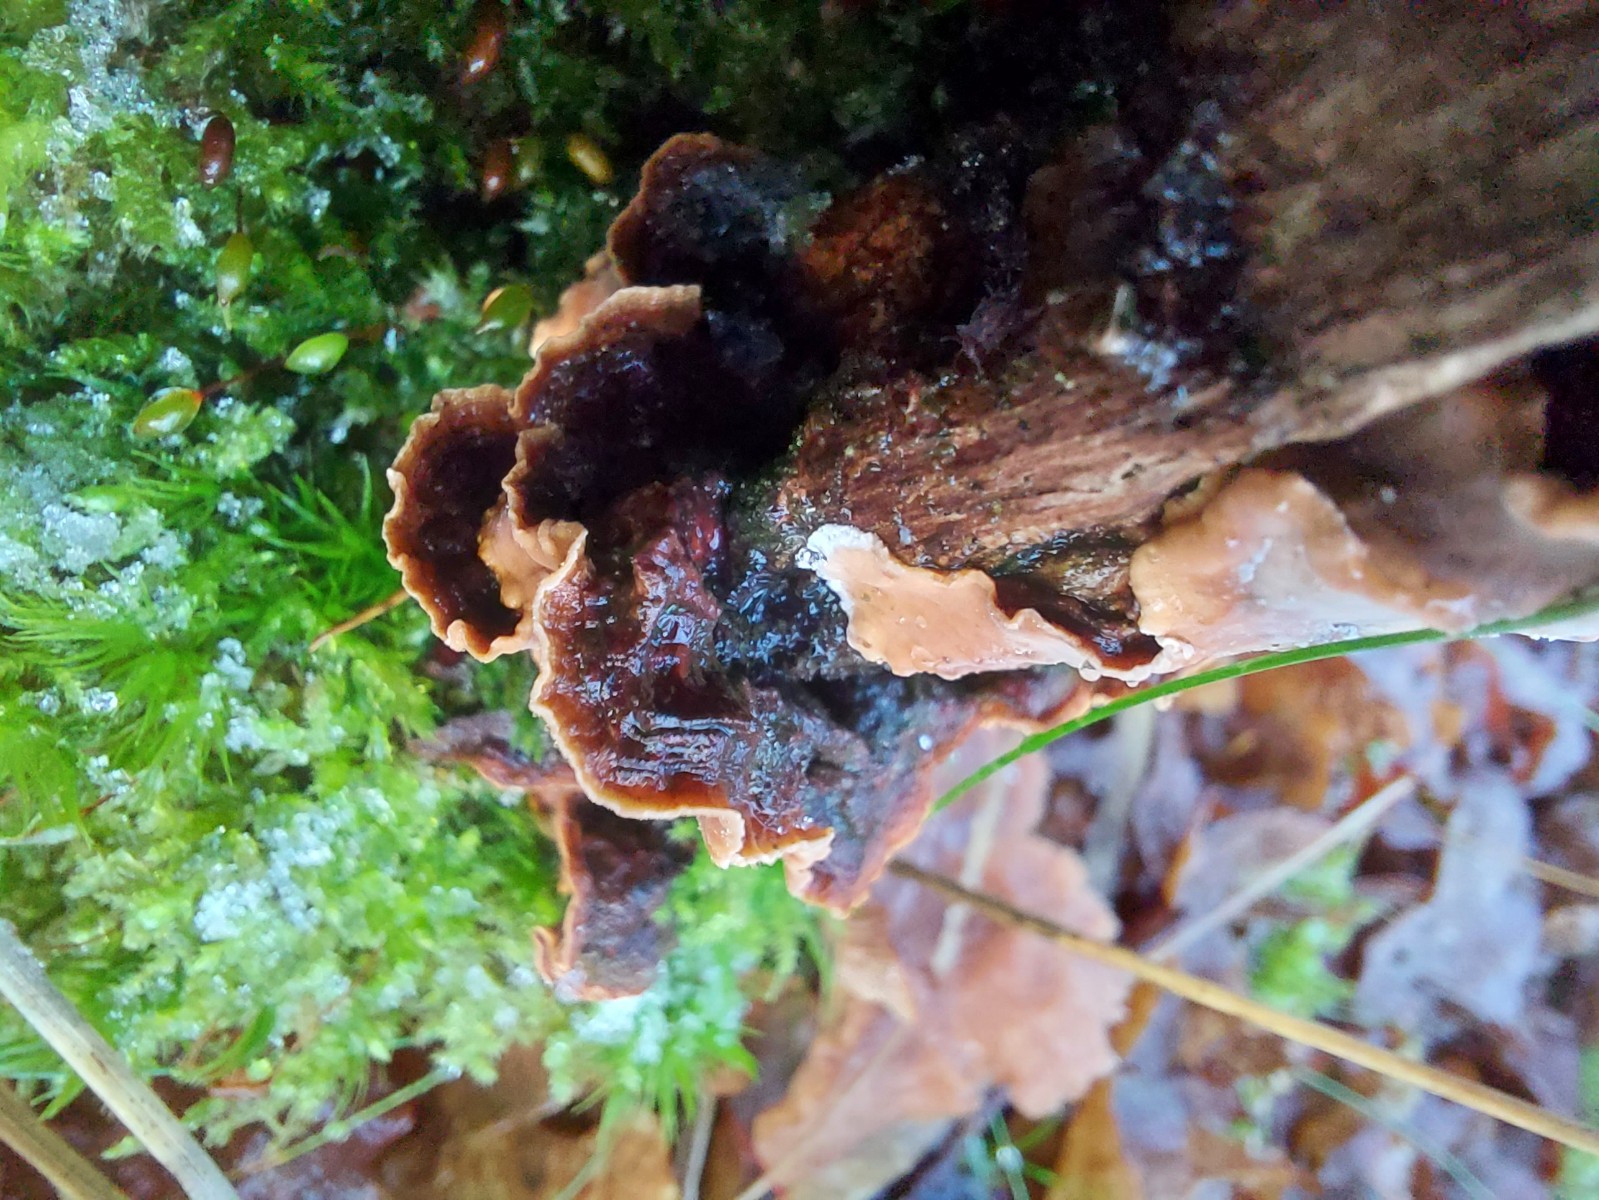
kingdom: Fungi
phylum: Basidiomycota
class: Agaricomycetes
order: Russulales
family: Stereaceae
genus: Stereum
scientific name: Stereum
